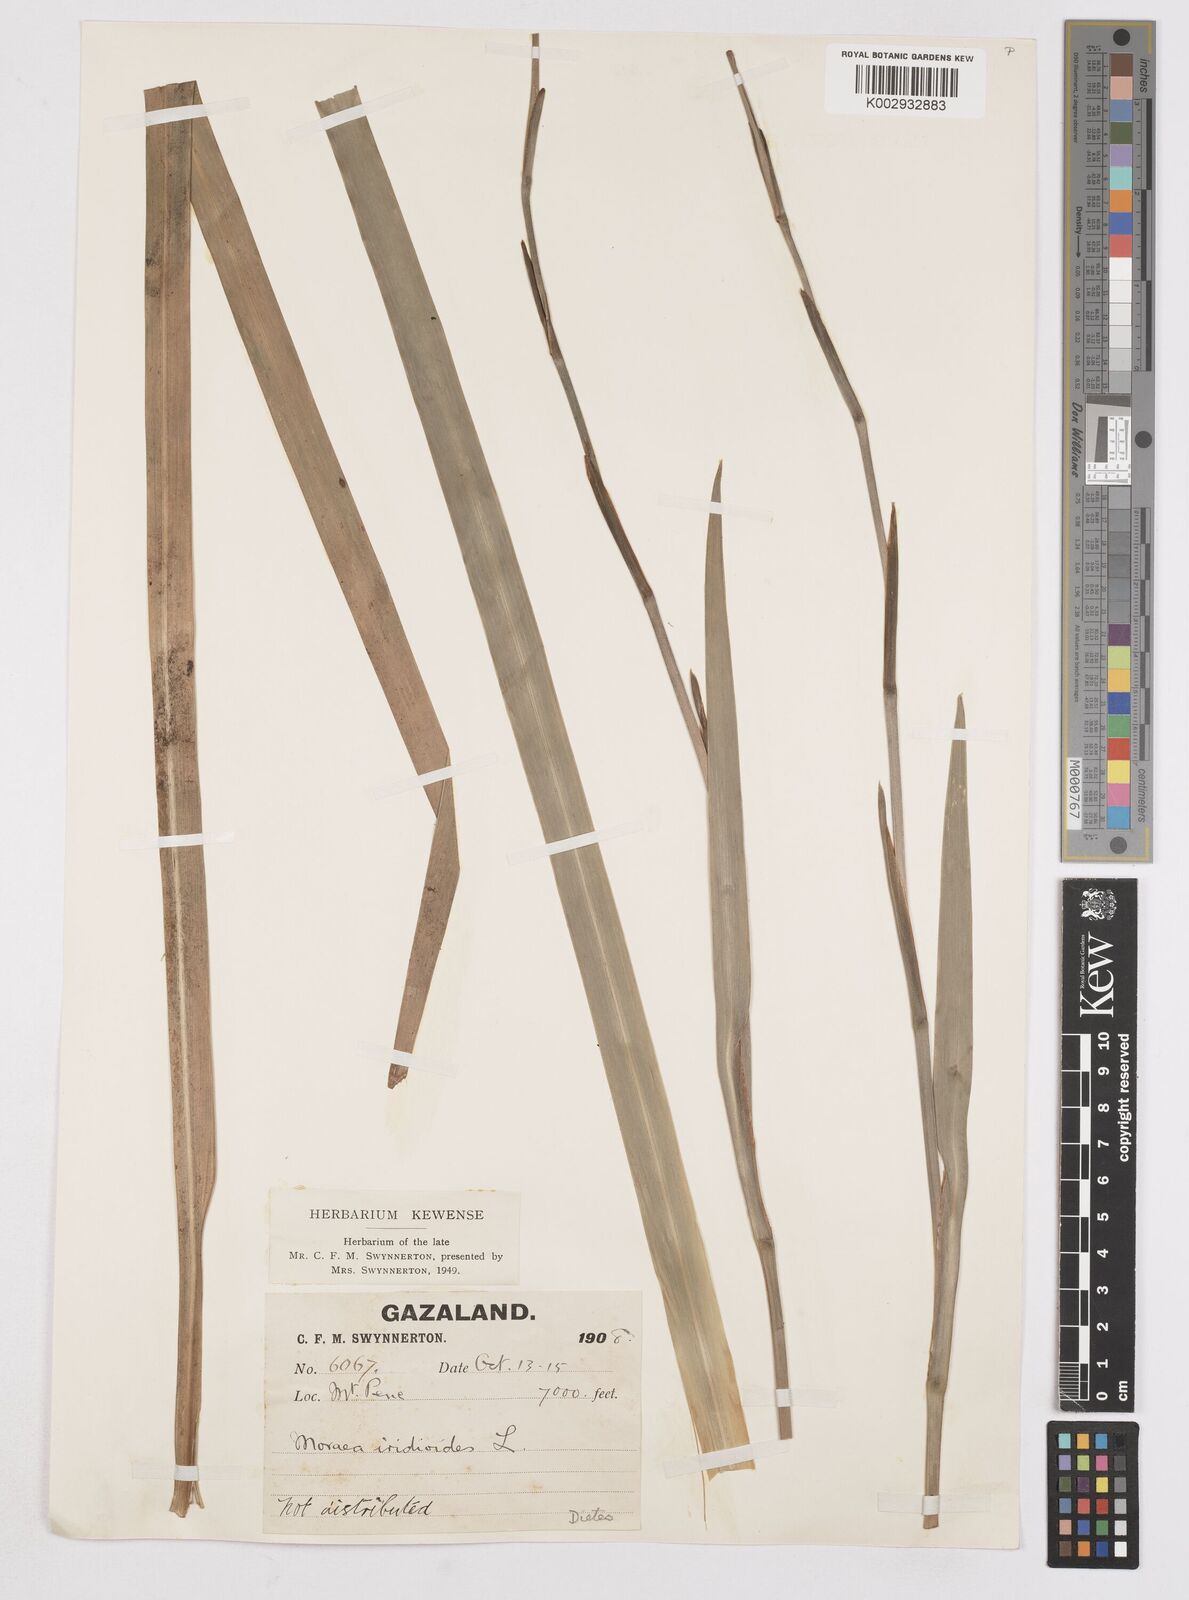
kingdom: Plantae
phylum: Tracheophyta
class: Liliopsida
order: Asparagales
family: Iridaceae
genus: Dietes
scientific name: Dietes iridioides
